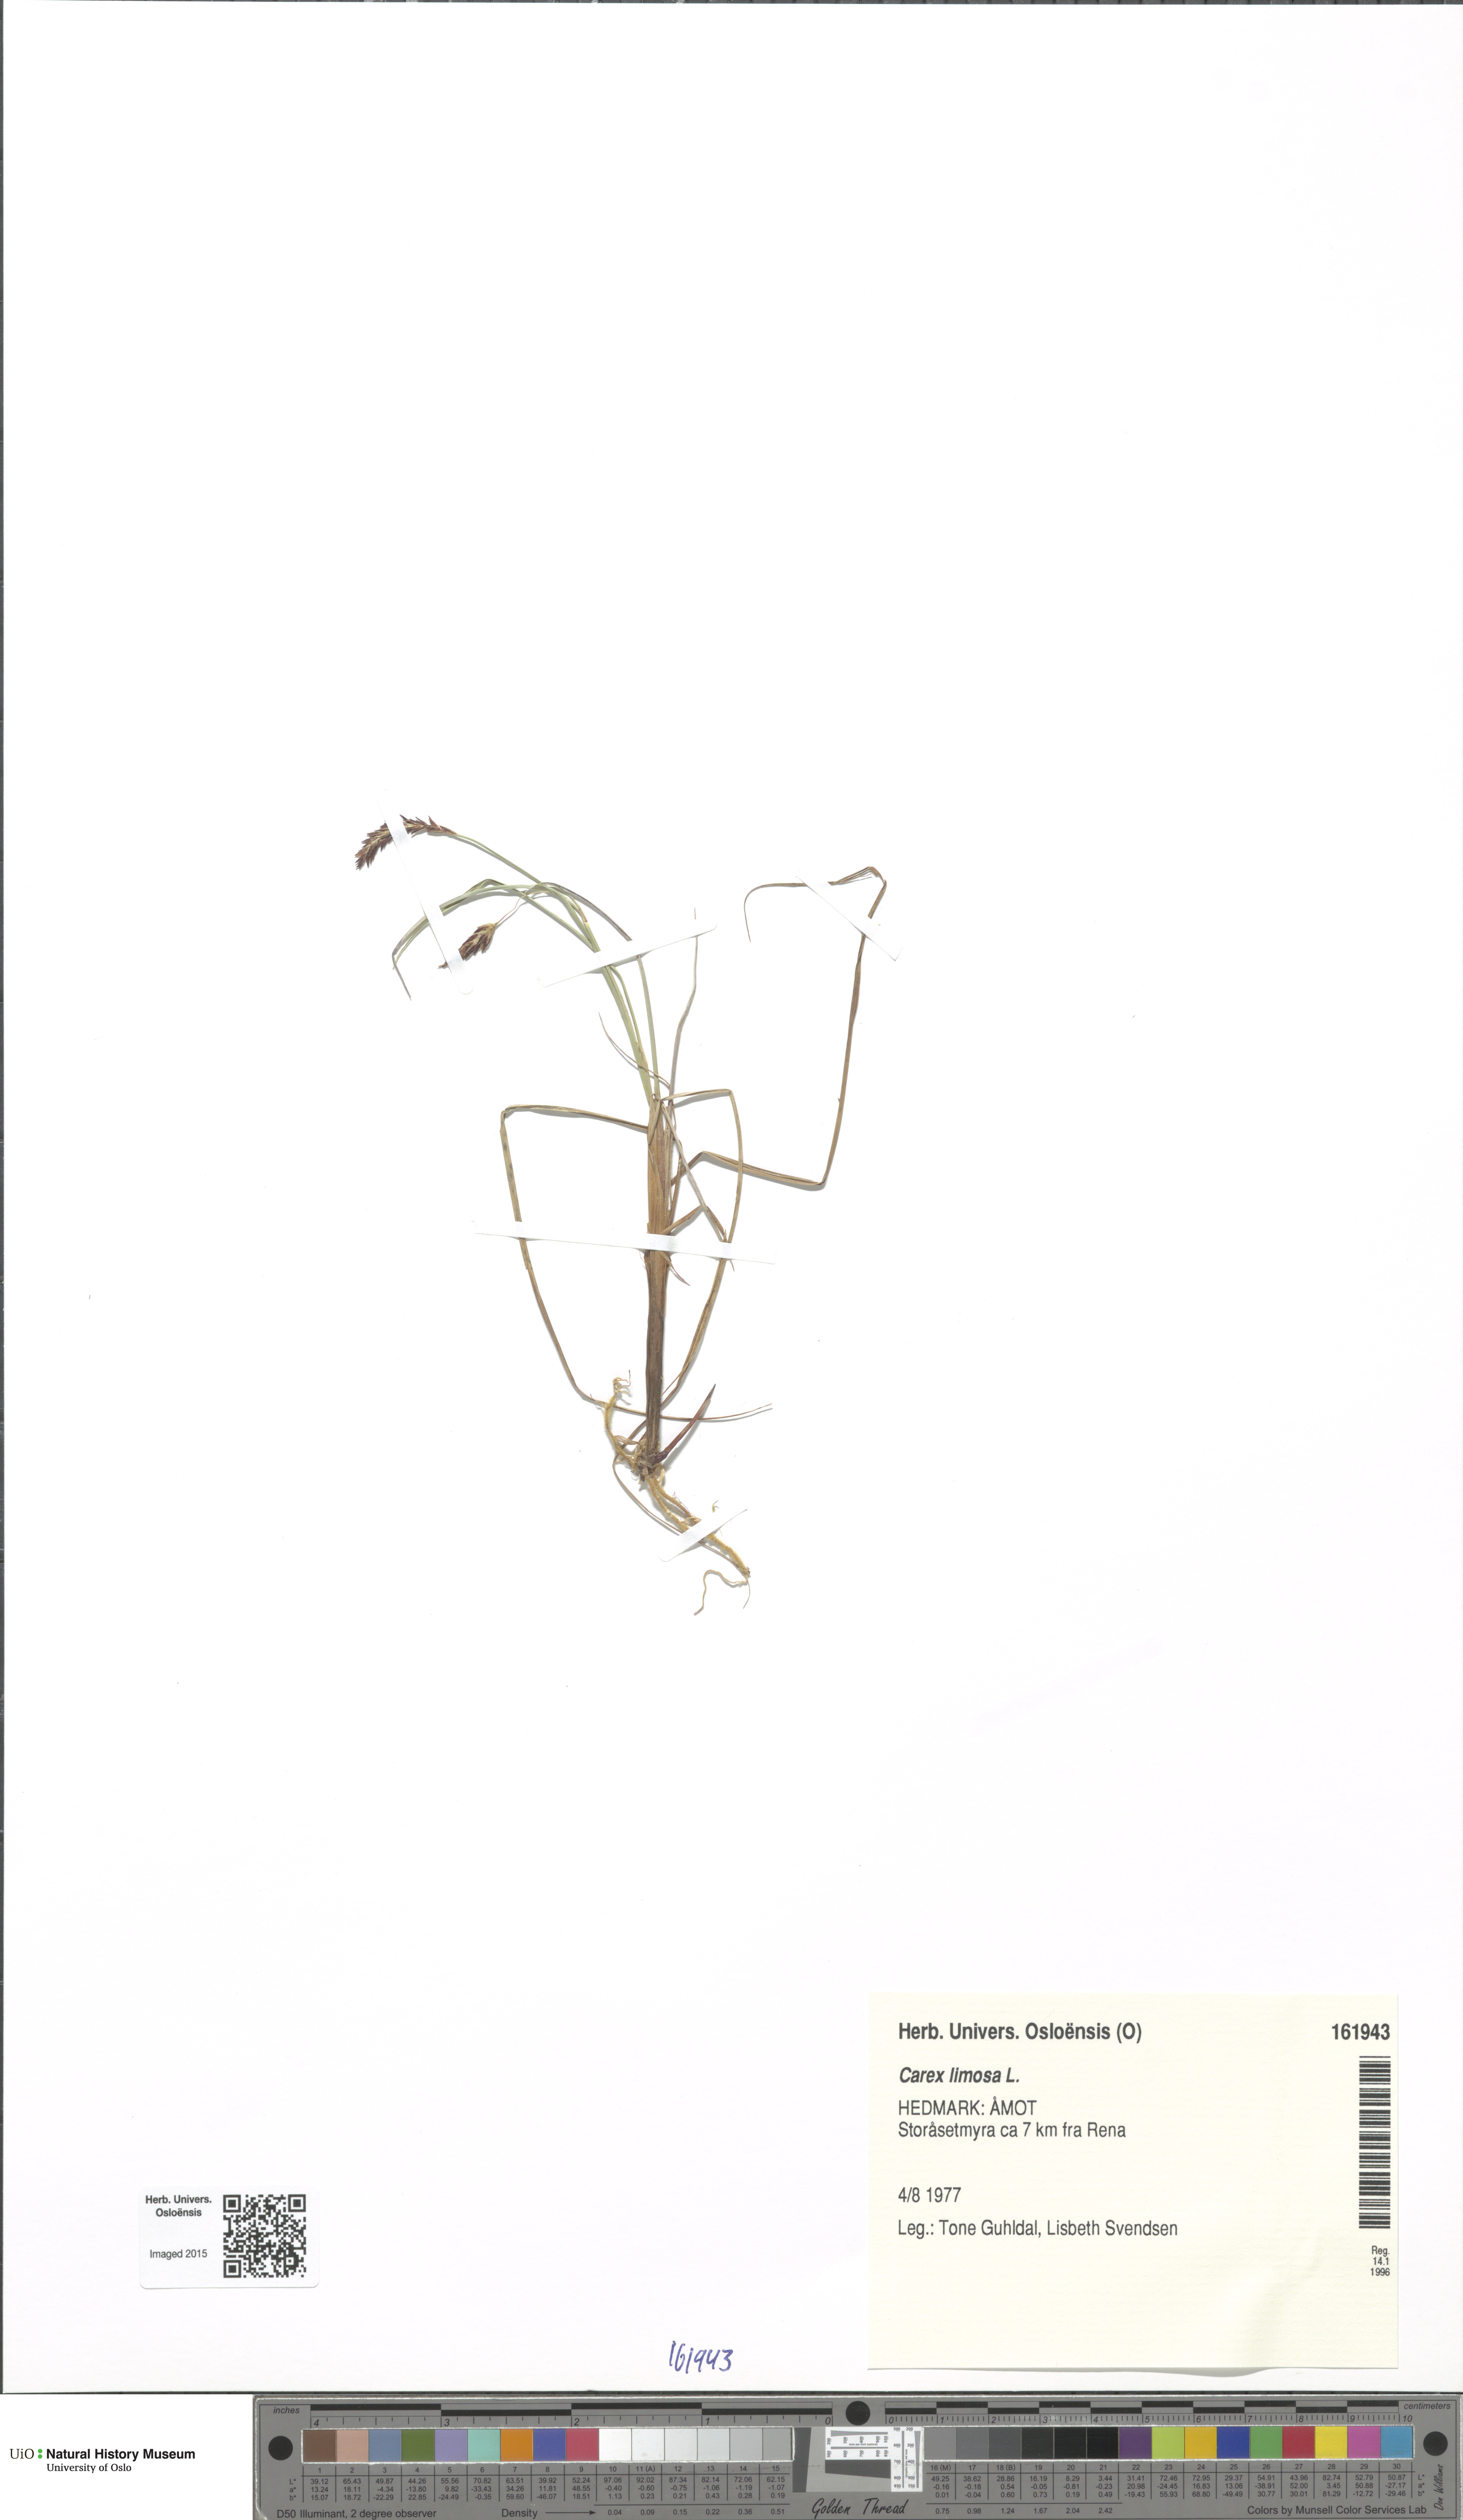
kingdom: Plantae
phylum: Tracheophyta
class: Liliopsida
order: Poales
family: Cyperaceae
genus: Carex
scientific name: Carex limosa
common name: Bog sedge
